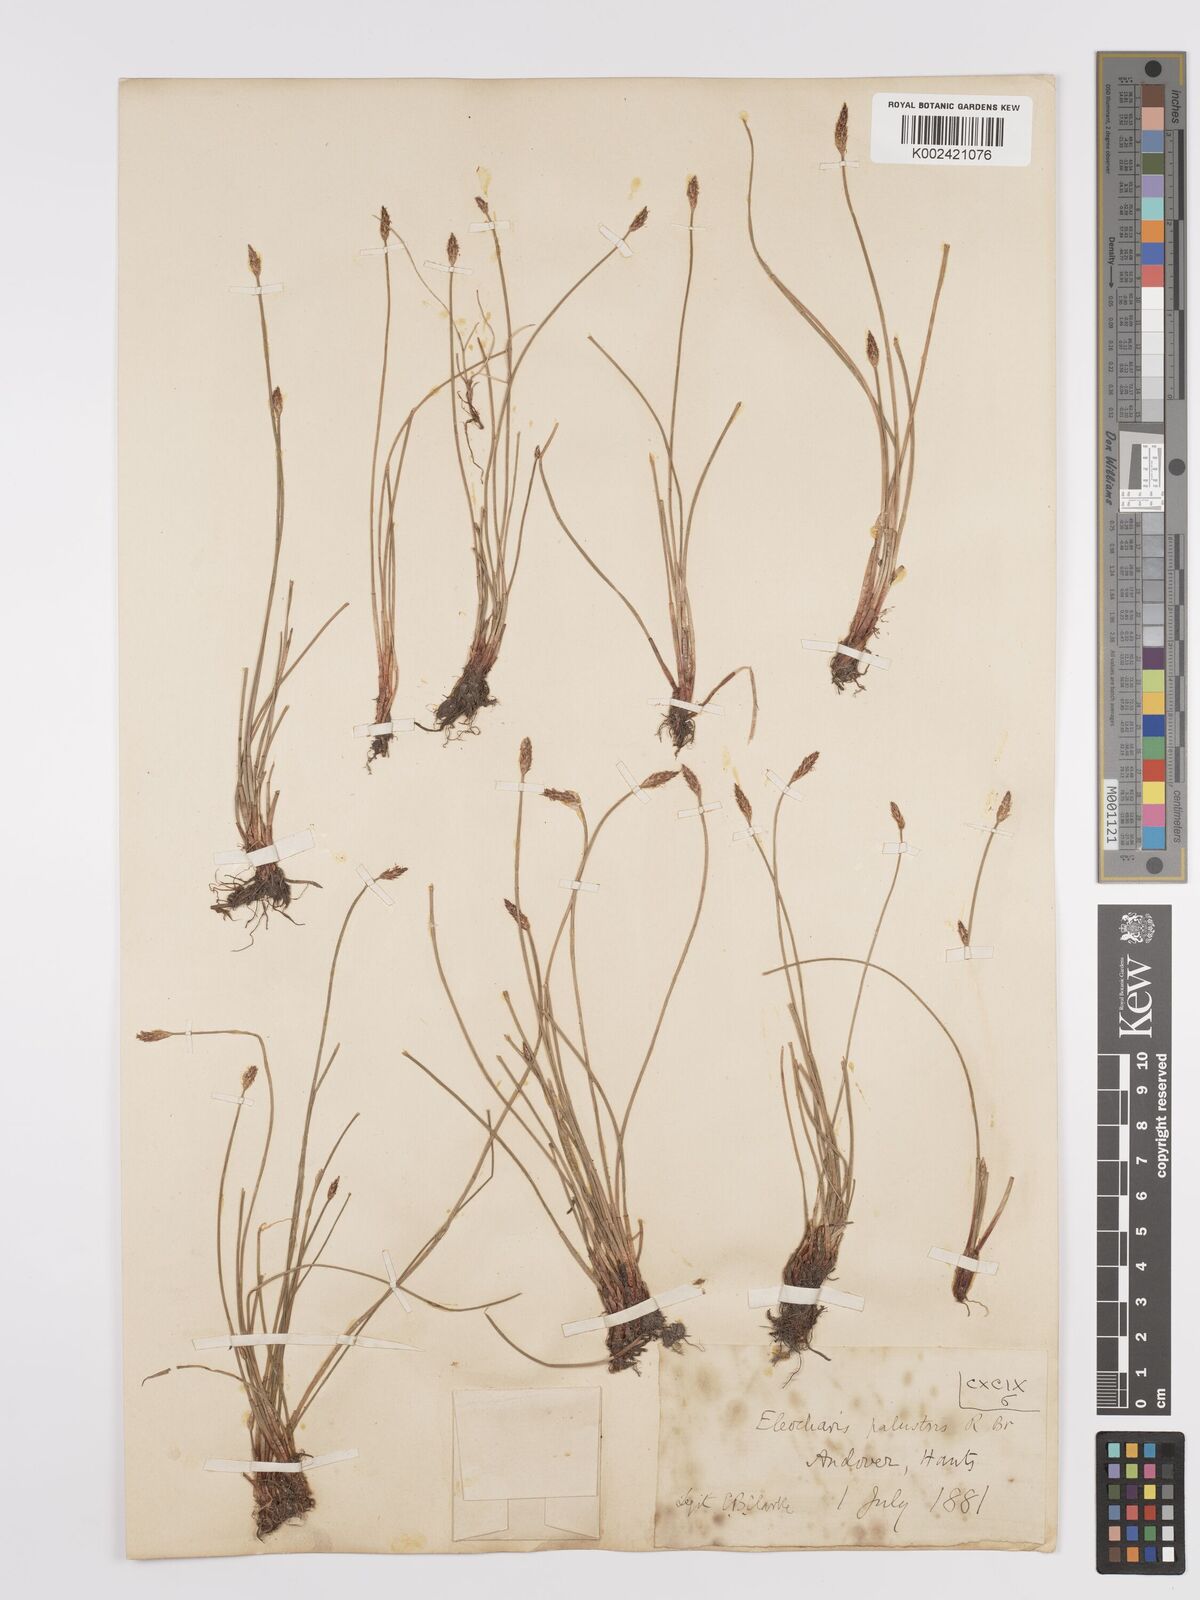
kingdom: Plantae
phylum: Tracheophyta
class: Liliopsida
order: Poales
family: Cyperaceae
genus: Eleocharis
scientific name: Eleocharis palustris
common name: Common spike-rush
